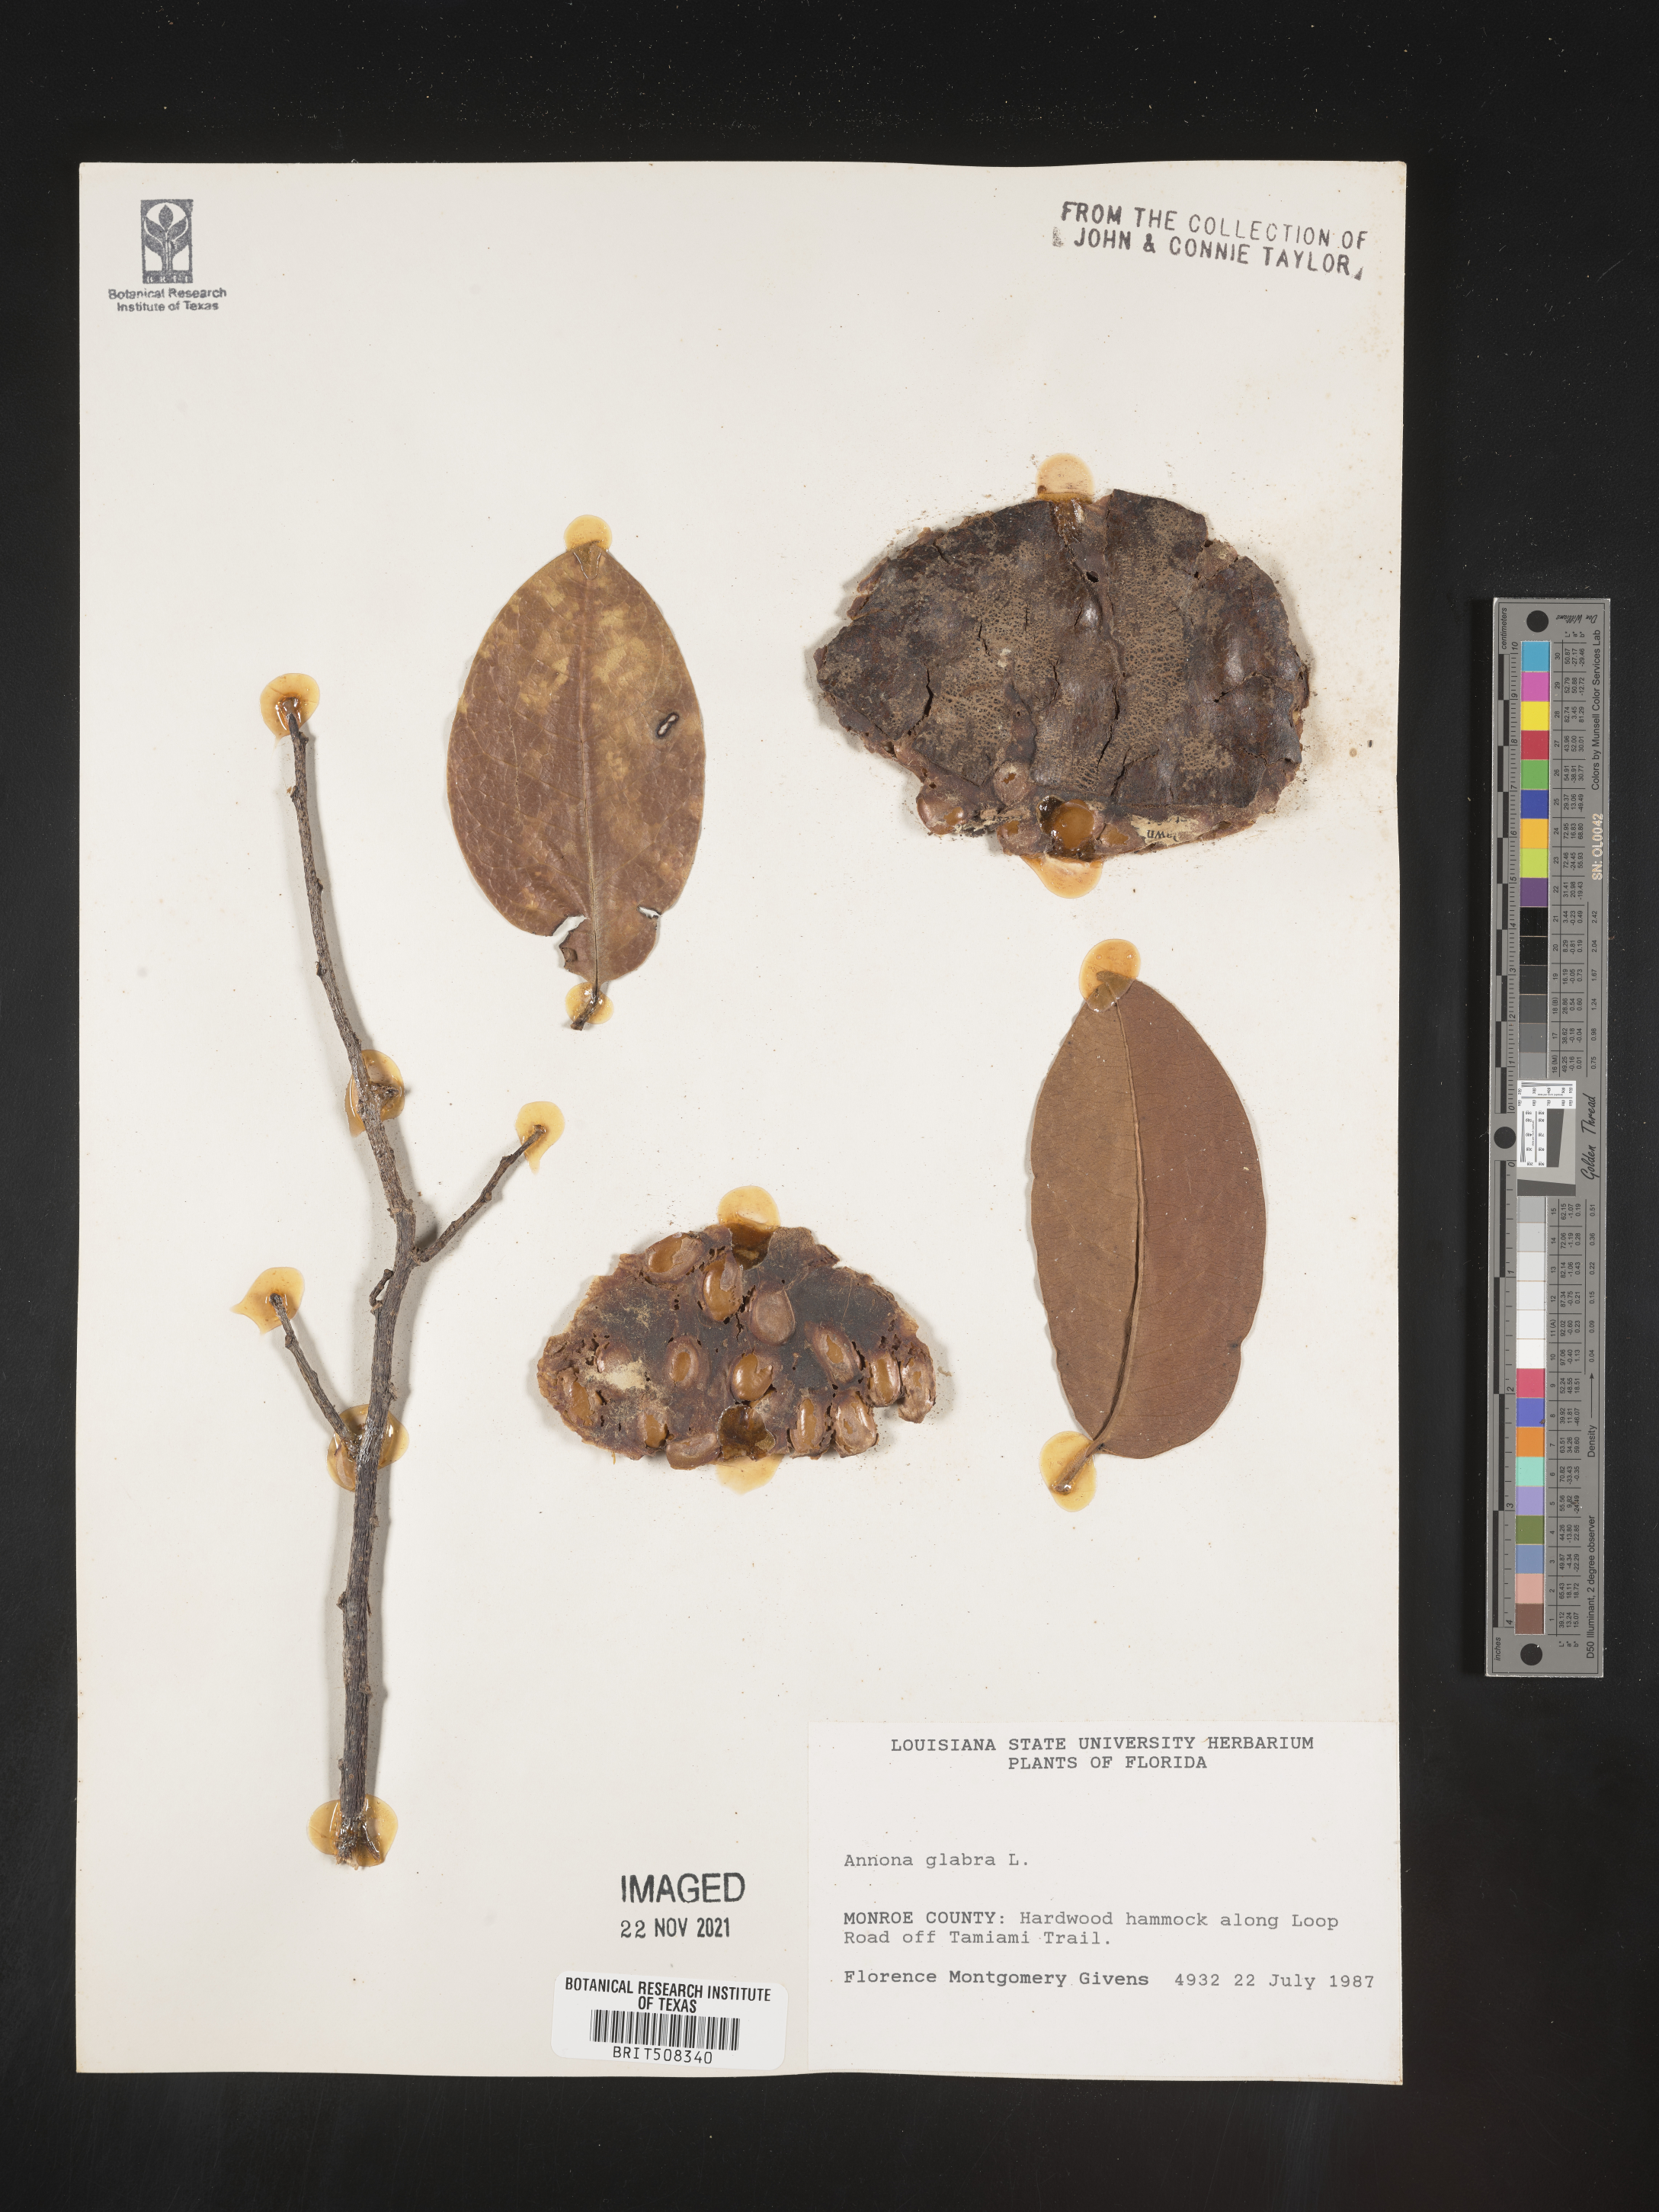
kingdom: Plantae
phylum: Tracheophyta
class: Magnoliopsida
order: Magnoliales
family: Annonaceae
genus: Annona
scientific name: Annona
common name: Anona
